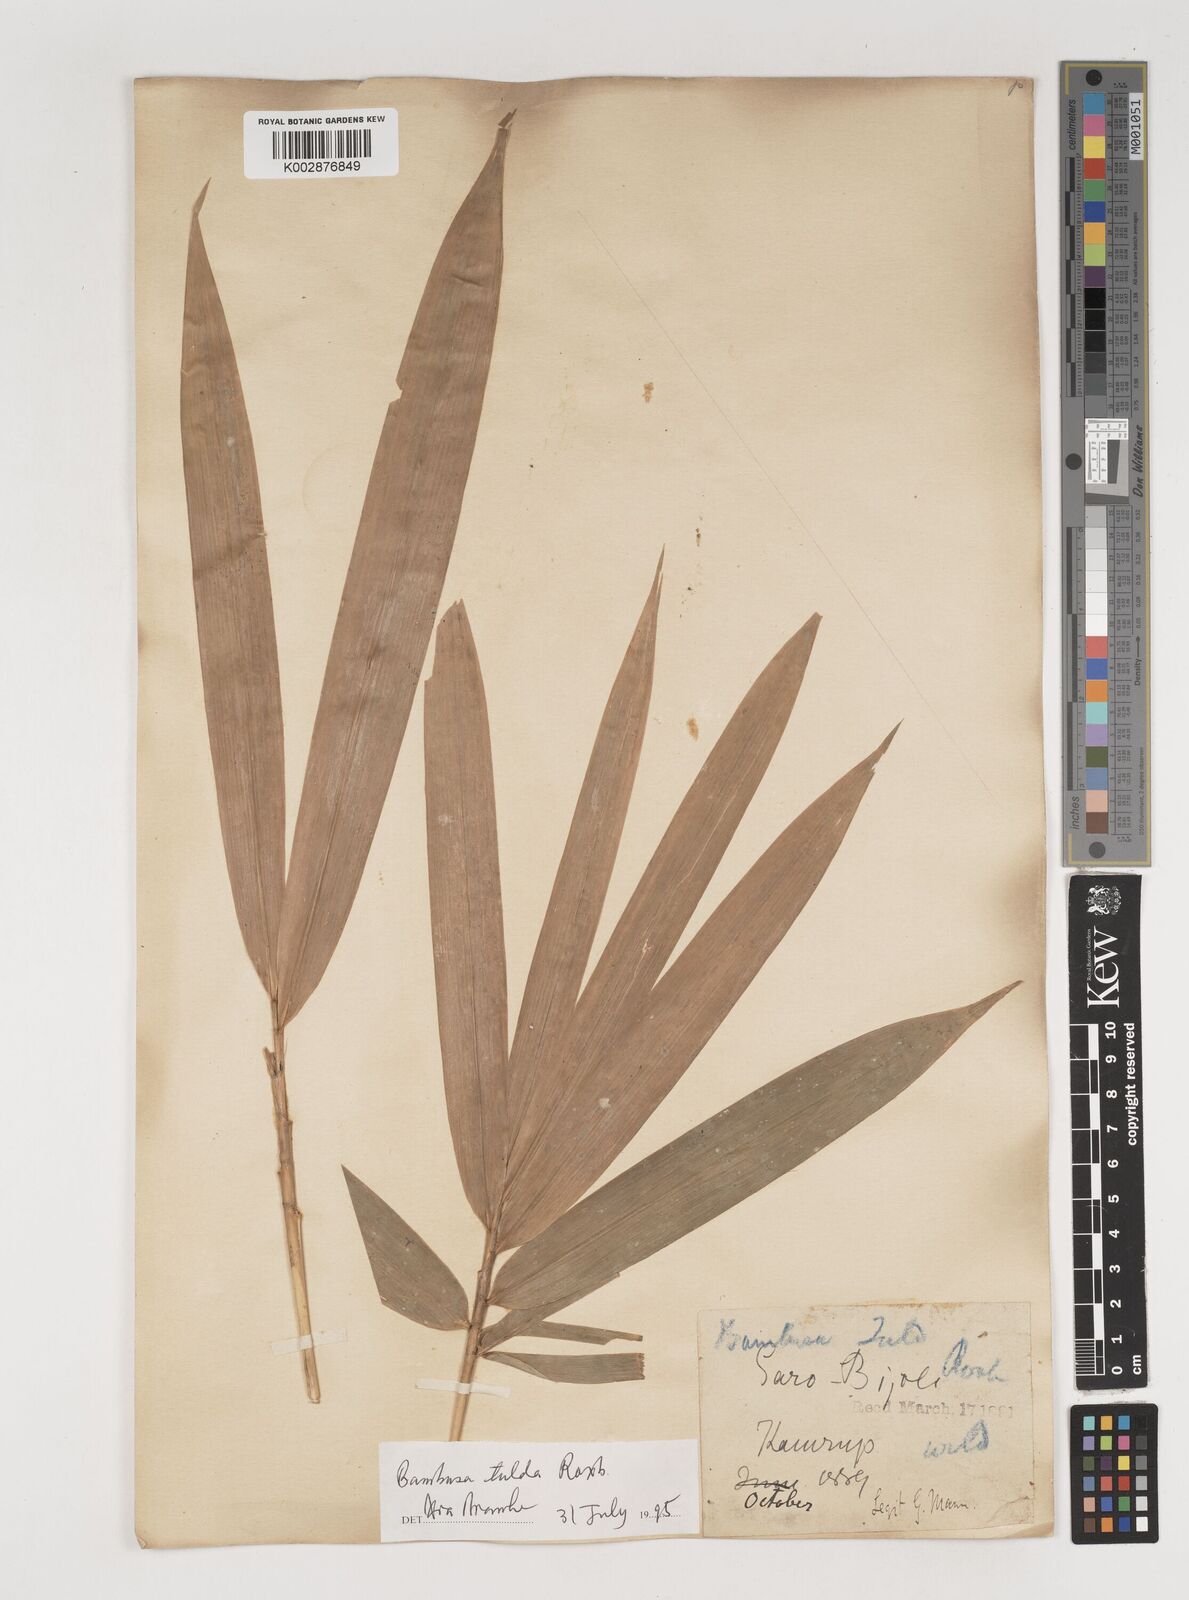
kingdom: Plantae
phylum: Tracheophyta
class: Liliopsida
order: Poales
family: Poaceae
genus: Bambusa
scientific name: Bambusa tulda
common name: Bengal bamboo
